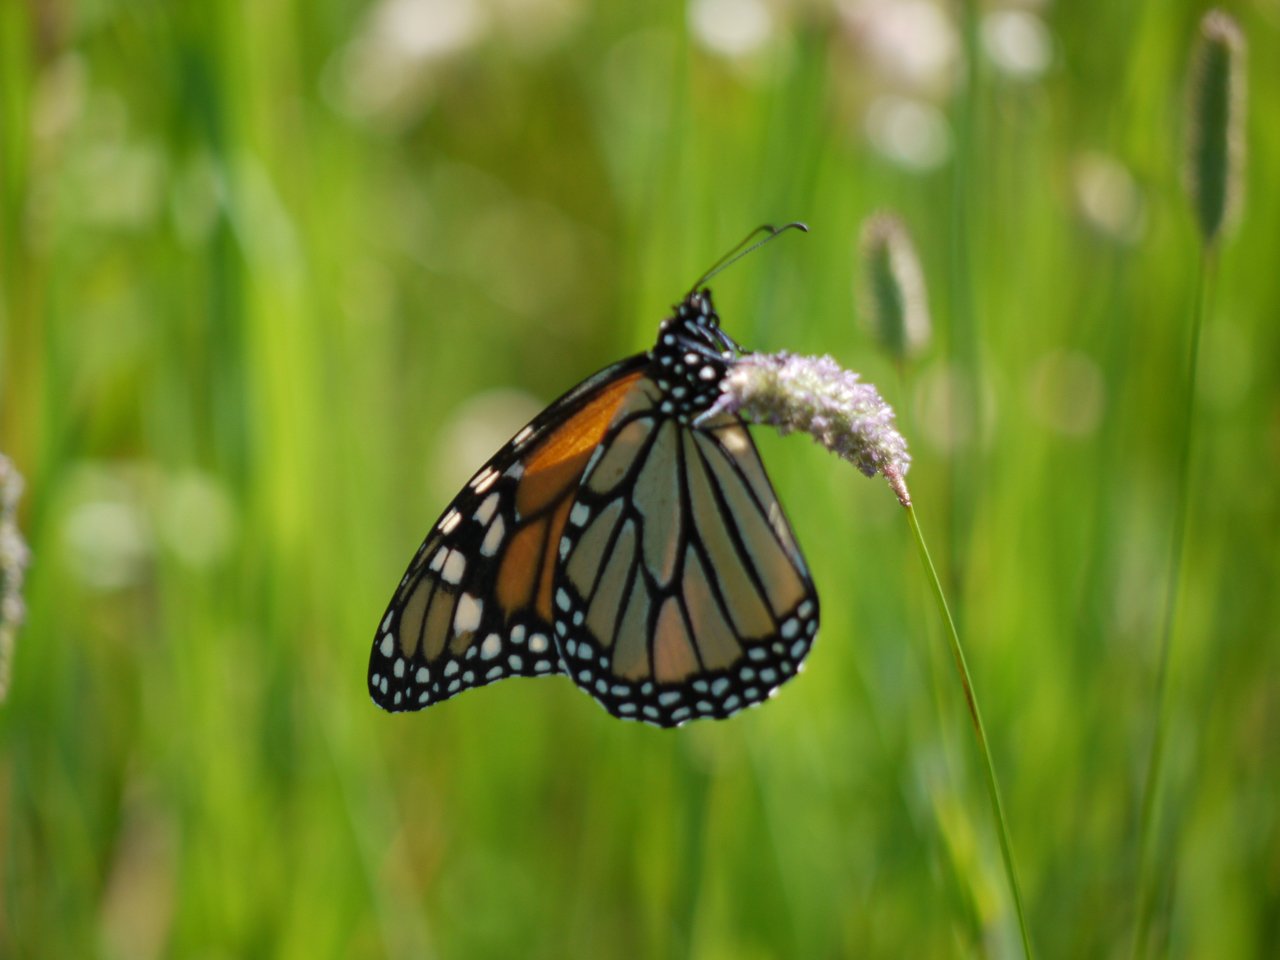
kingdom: Animalia
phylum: Arthropoda
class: Insecta
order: Lepidoptera
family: Nymphalidae
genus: Danaus
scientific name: Danaus plexippus
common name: Monarch
